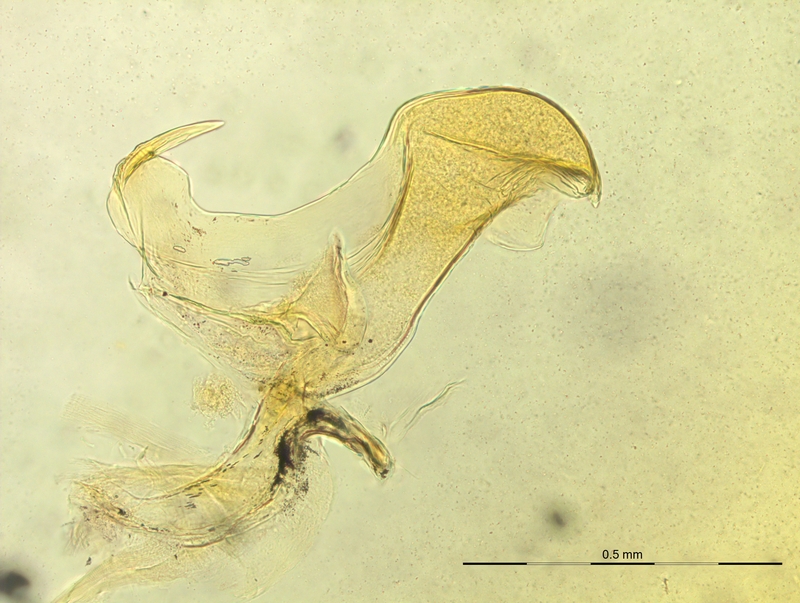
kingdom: Animalia
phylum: Arthropoda
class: Diplopoda
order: Chordeumatida
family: Craspedosomatidae
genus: Rhymogona
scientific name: Rhymogona montivaga
